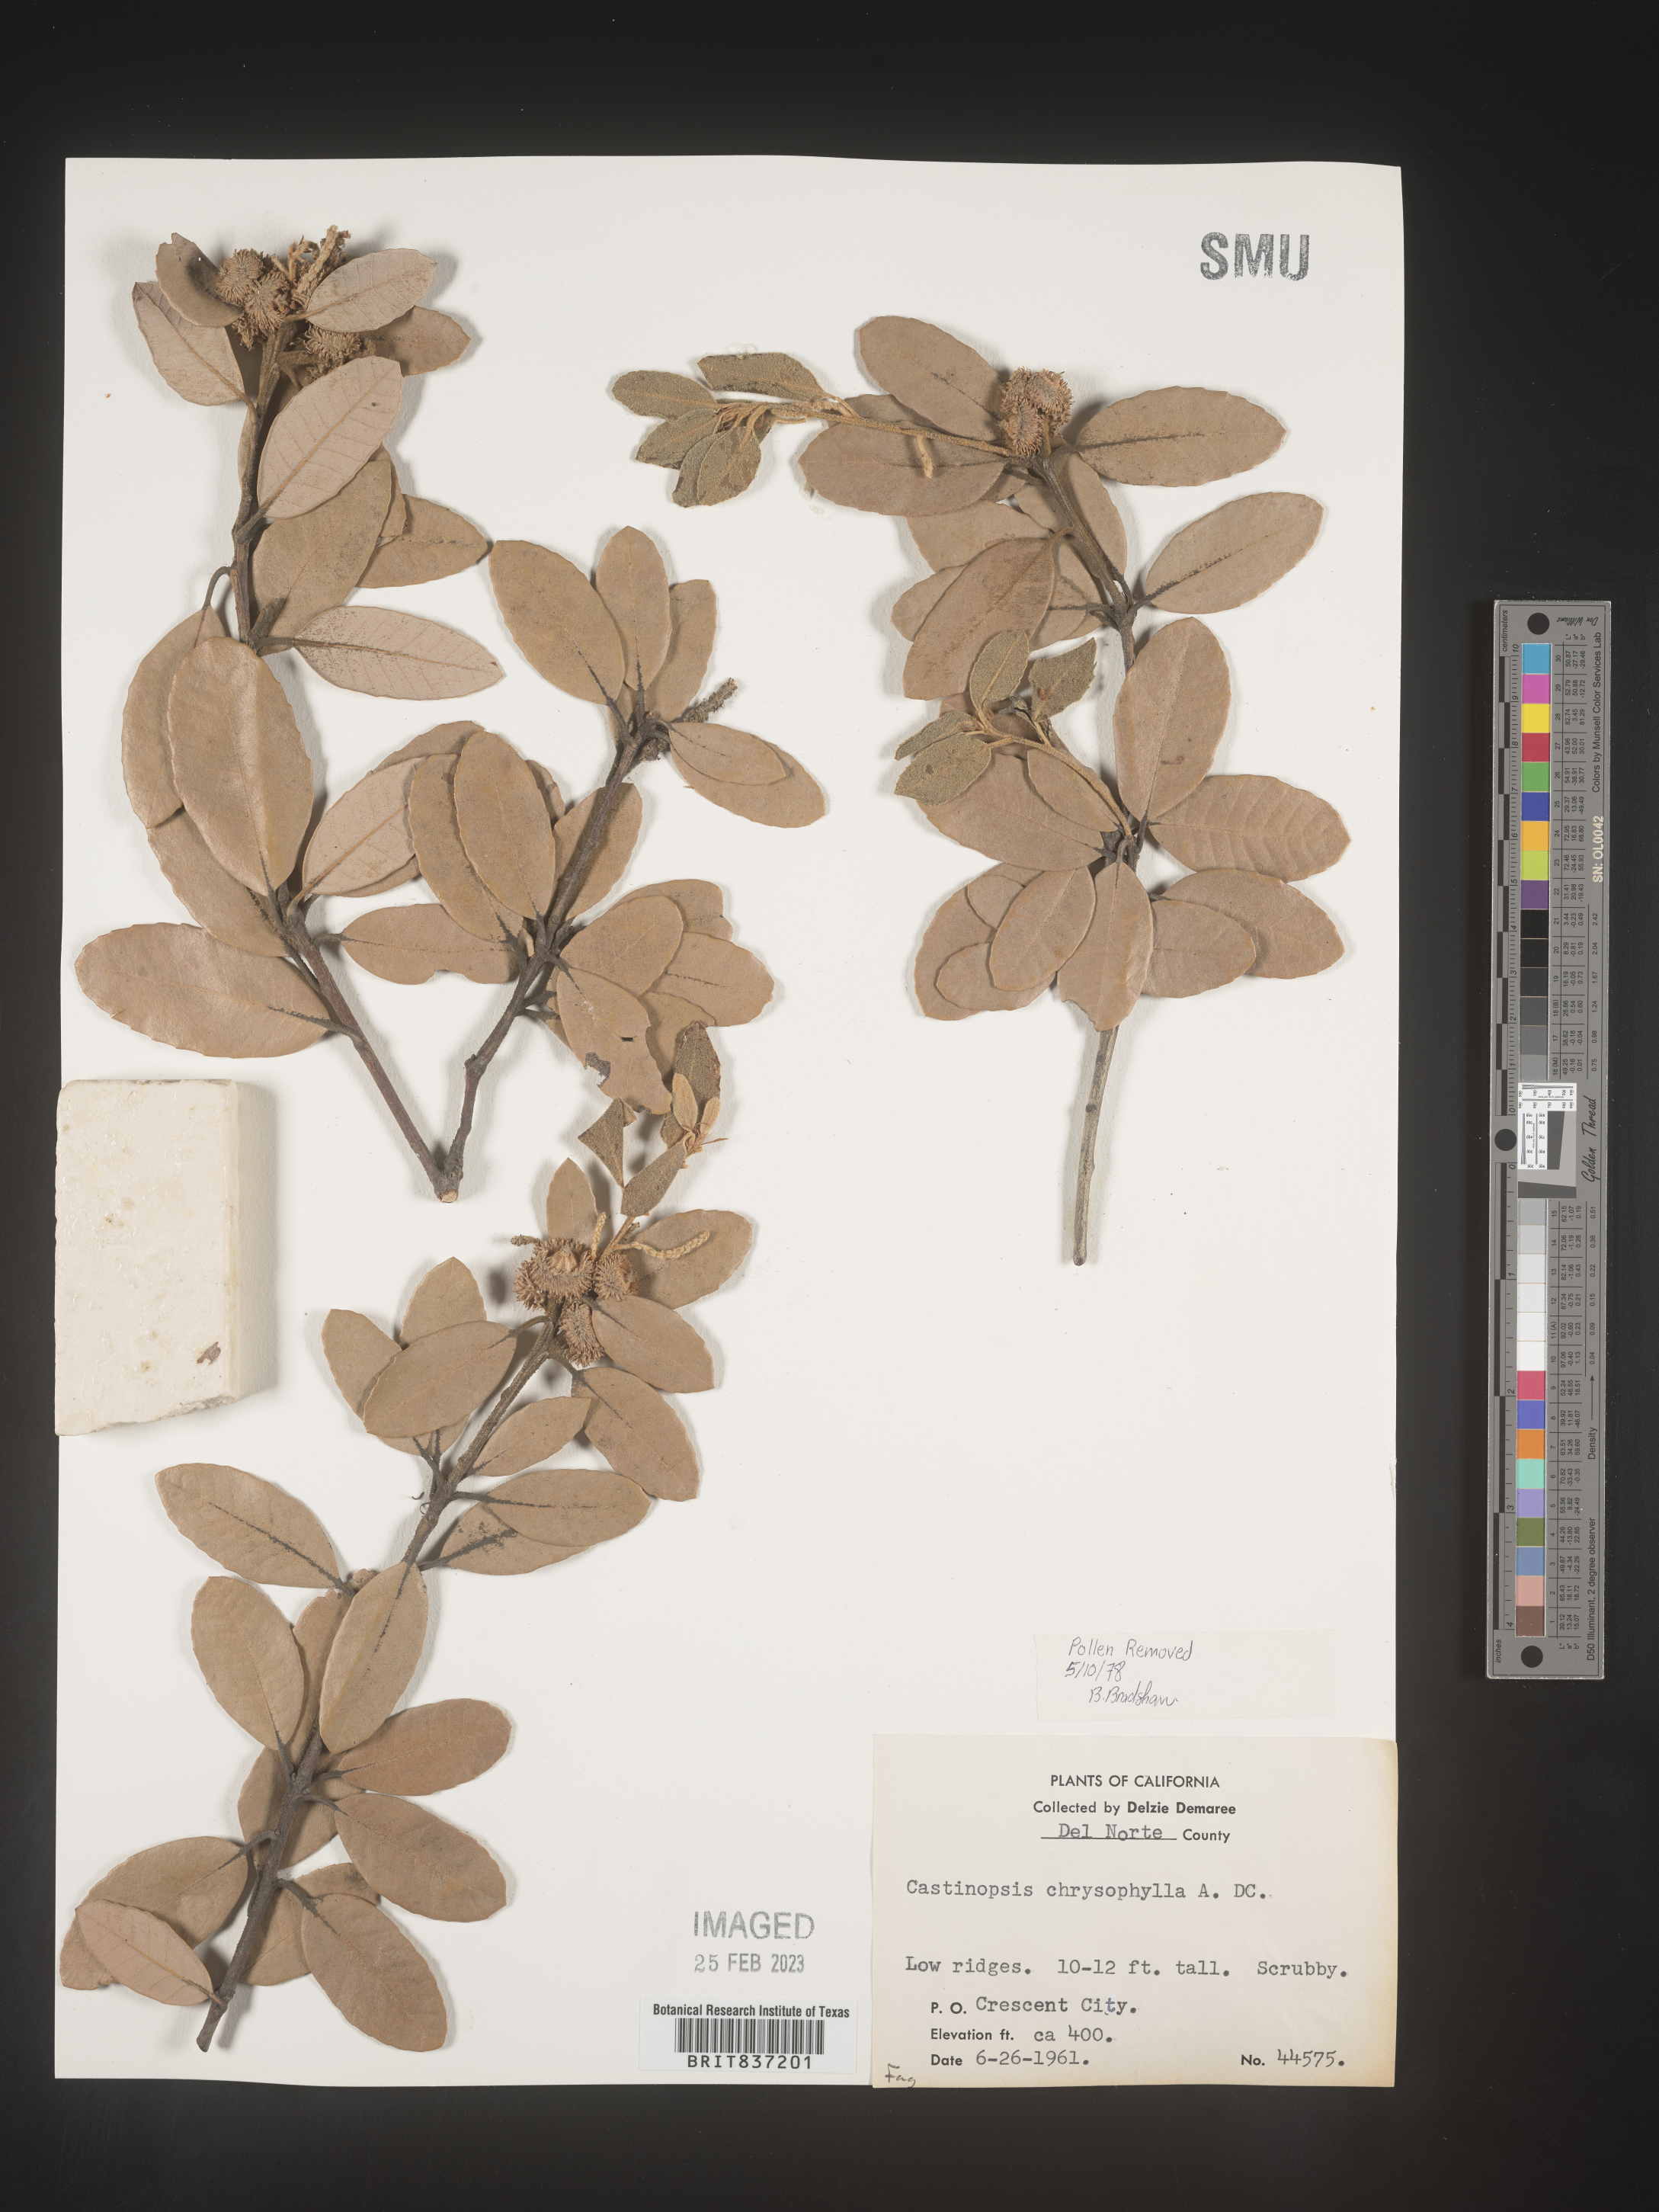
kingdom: Plantae
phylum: Tracheophyta
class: Magnoliopsida
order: Fagales
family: Fagaceae
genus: Castanopsis
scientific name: Castanopsis
